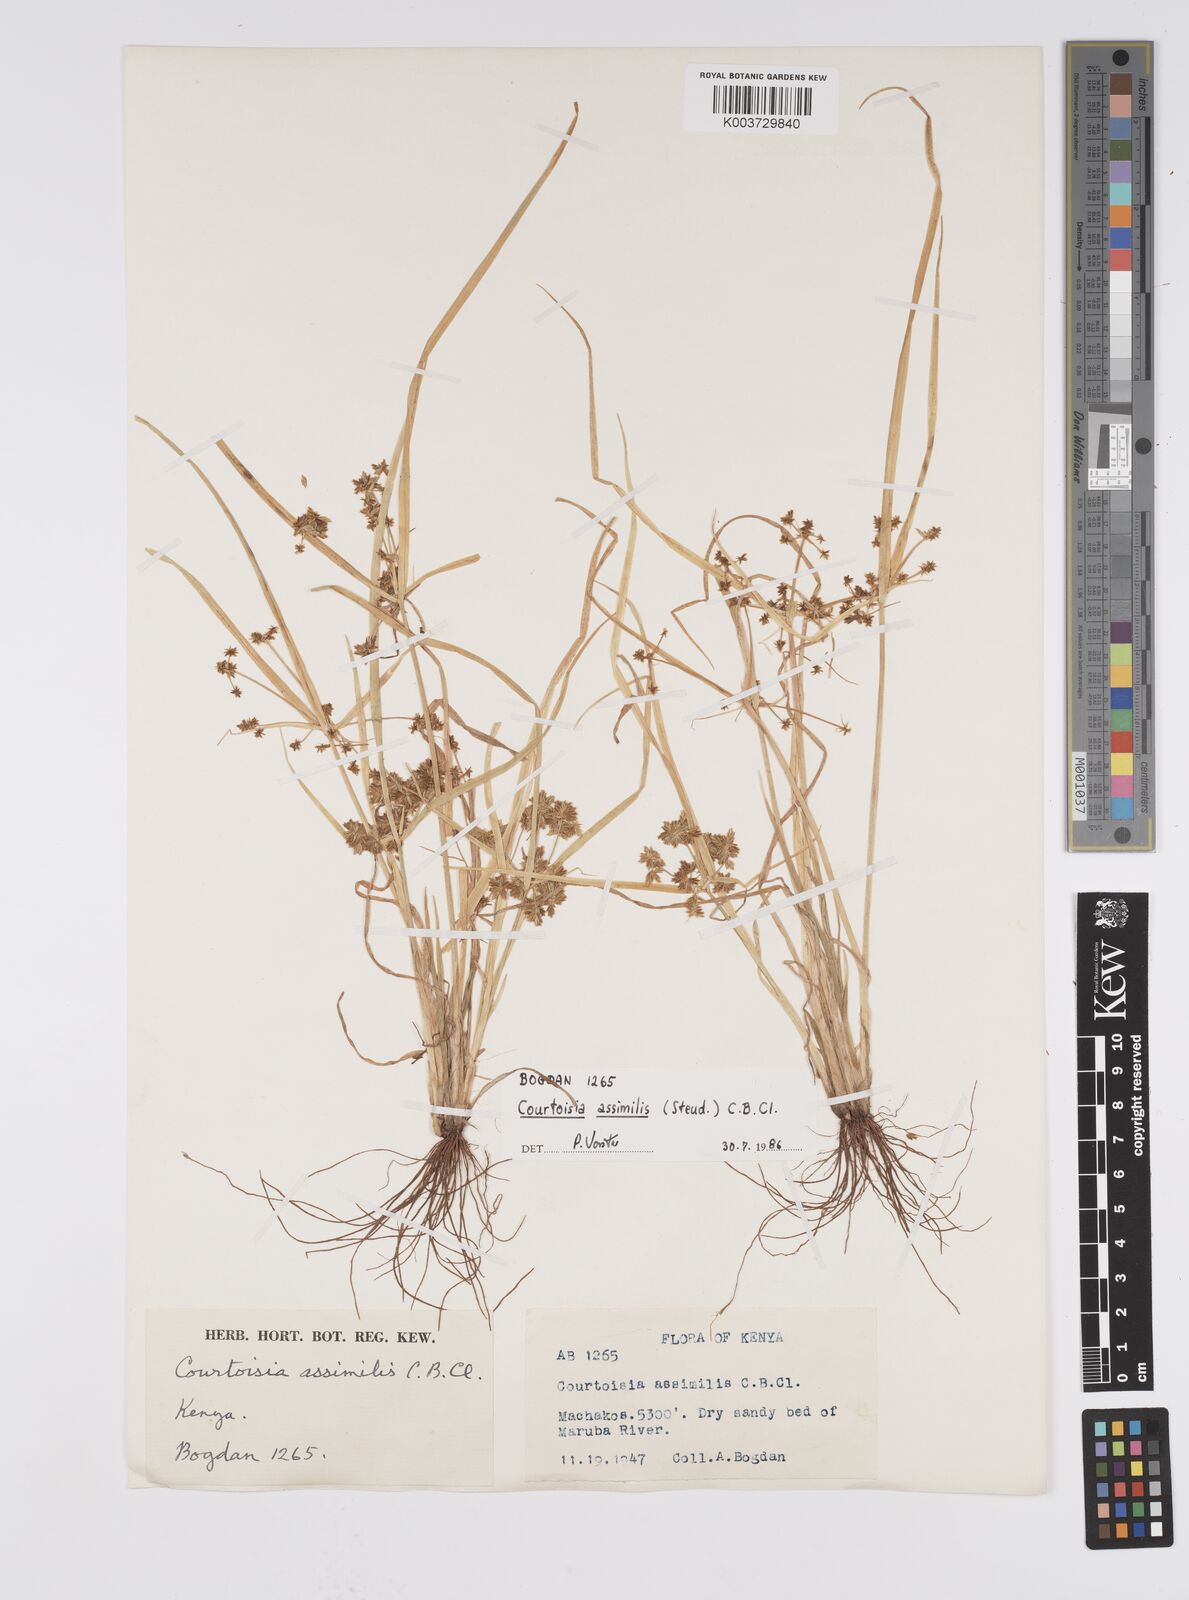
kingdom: Plantae
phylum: Tracheophyta
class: Liliopsida
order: Poales
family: Cyperaceae
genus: Cyperus
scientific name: Cyperus assimilis
